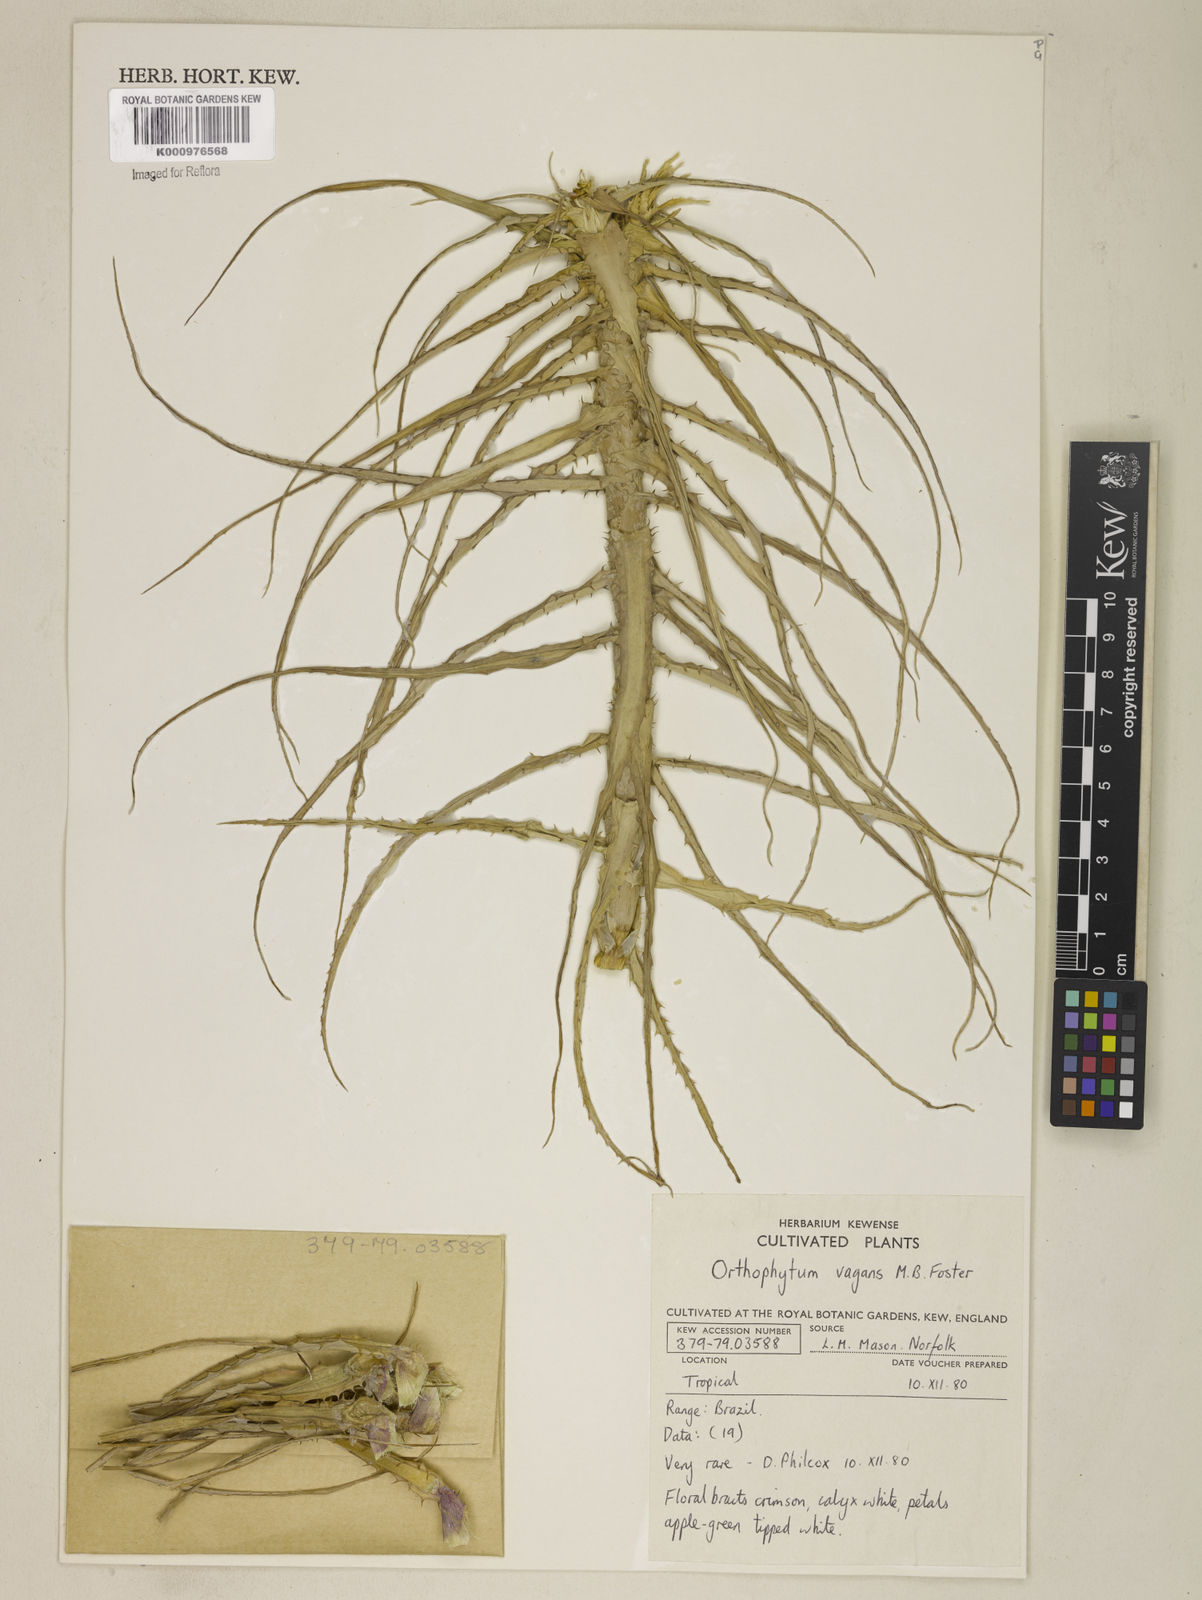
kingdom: Plantae
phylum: Tracheophyta
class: Liliopsida
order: Poales
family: Bromeliaceae
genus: Orthophytum
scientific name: Orthophytum vagans
